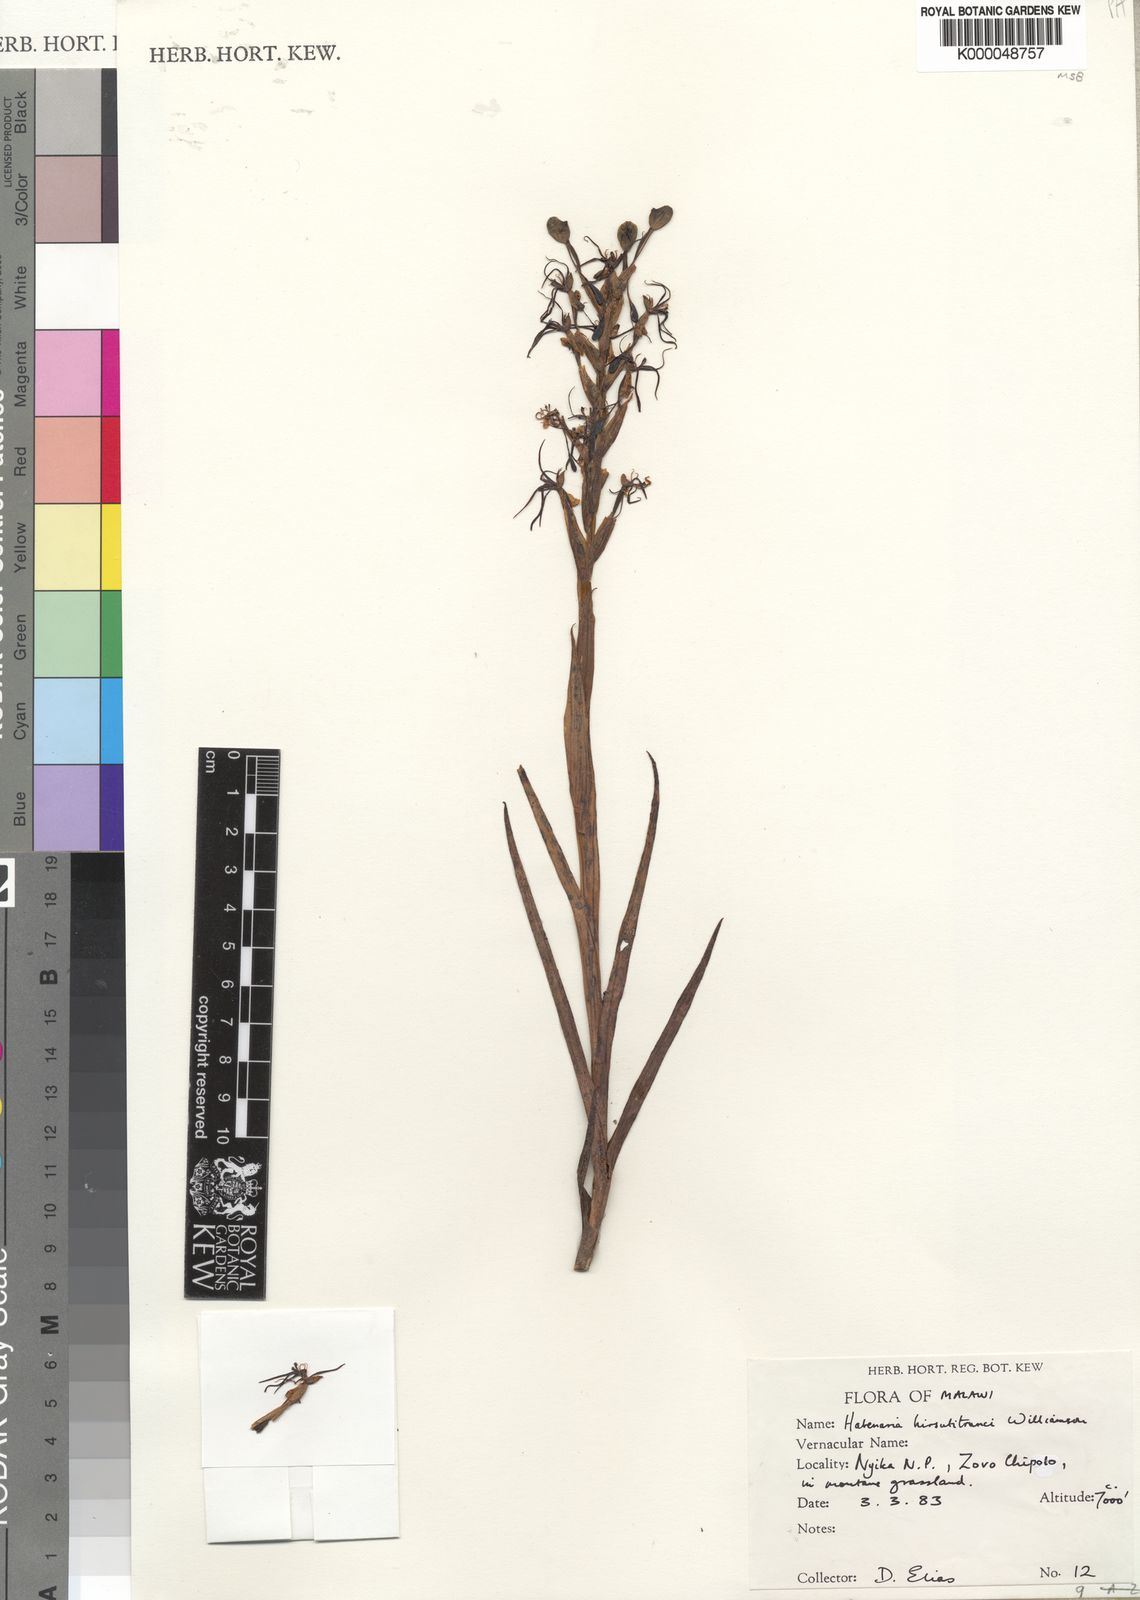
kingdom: Plantae
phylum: Tracheophyta
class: Liliopsida
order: Asparagales
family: Orchidaceae
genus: Habenaria
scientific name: Habenaria
